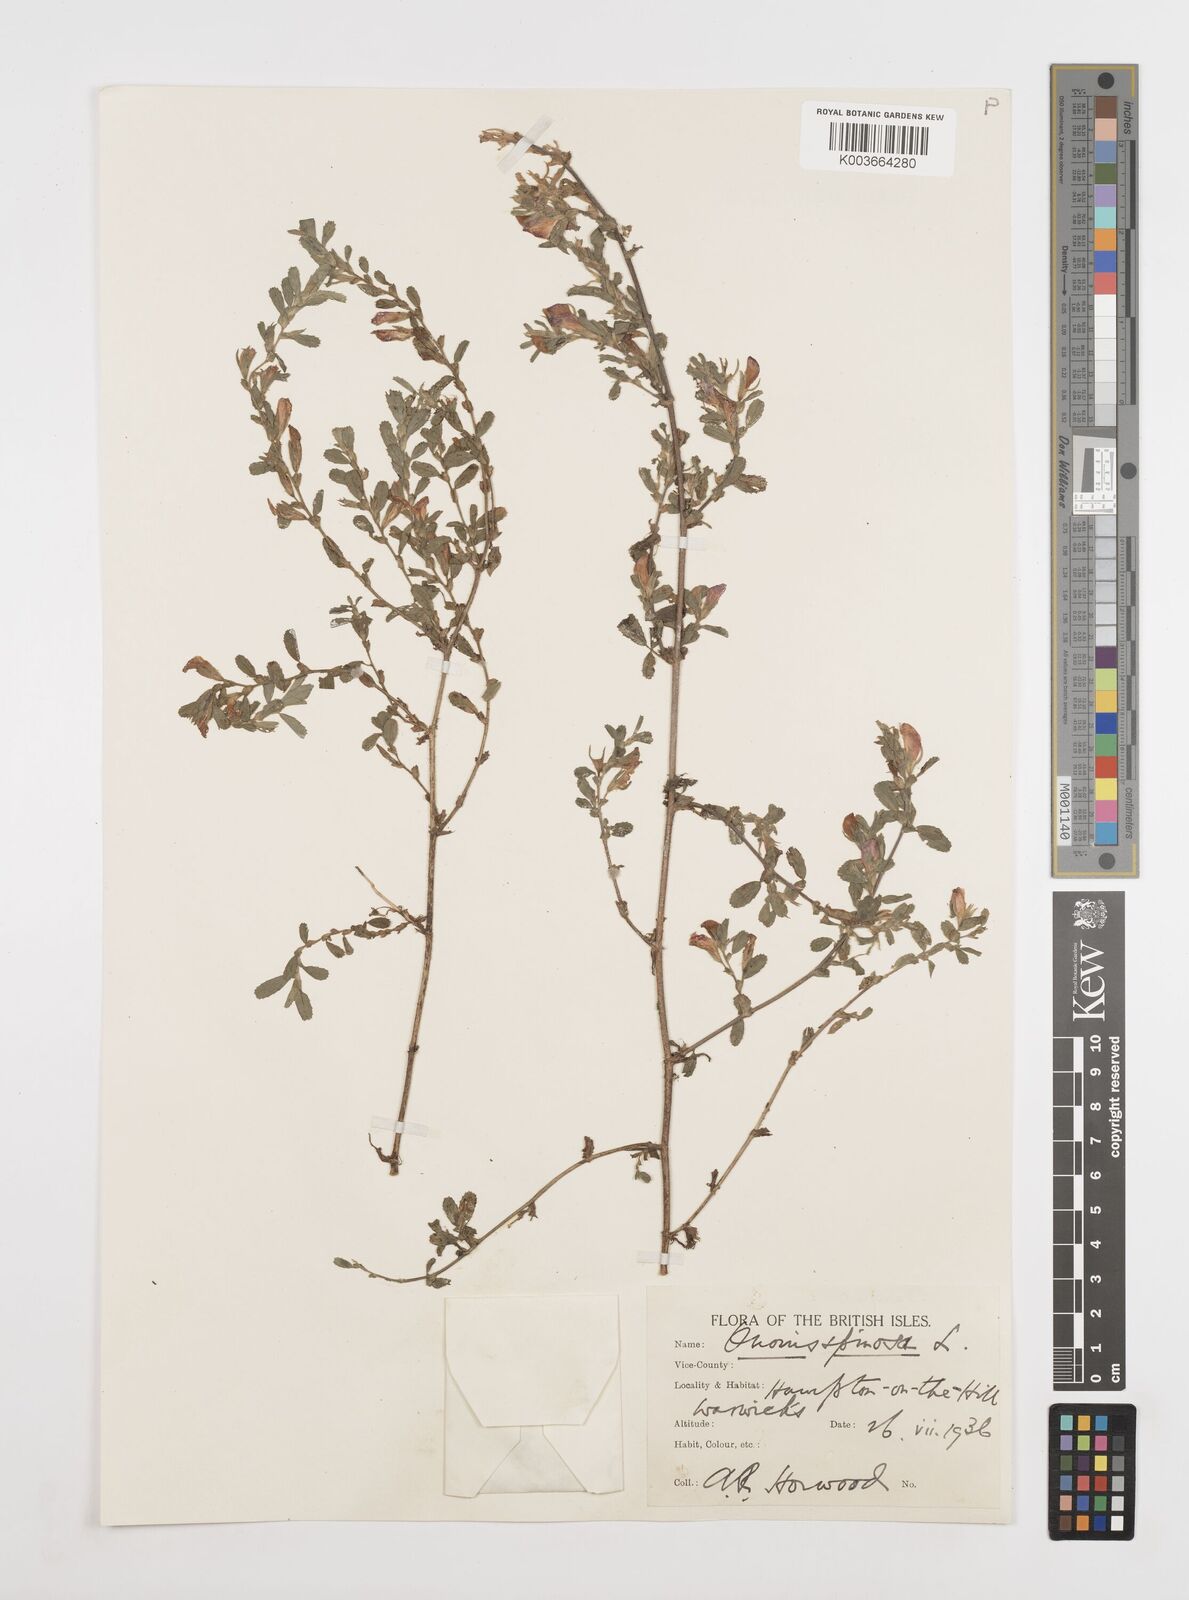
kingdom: Plantae
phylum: Tracheophyta
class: Magnoliopsida
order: Fabales
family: Fabaceae
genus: Ononis
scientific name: Ononis spinosa
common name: Spiny restharrow
